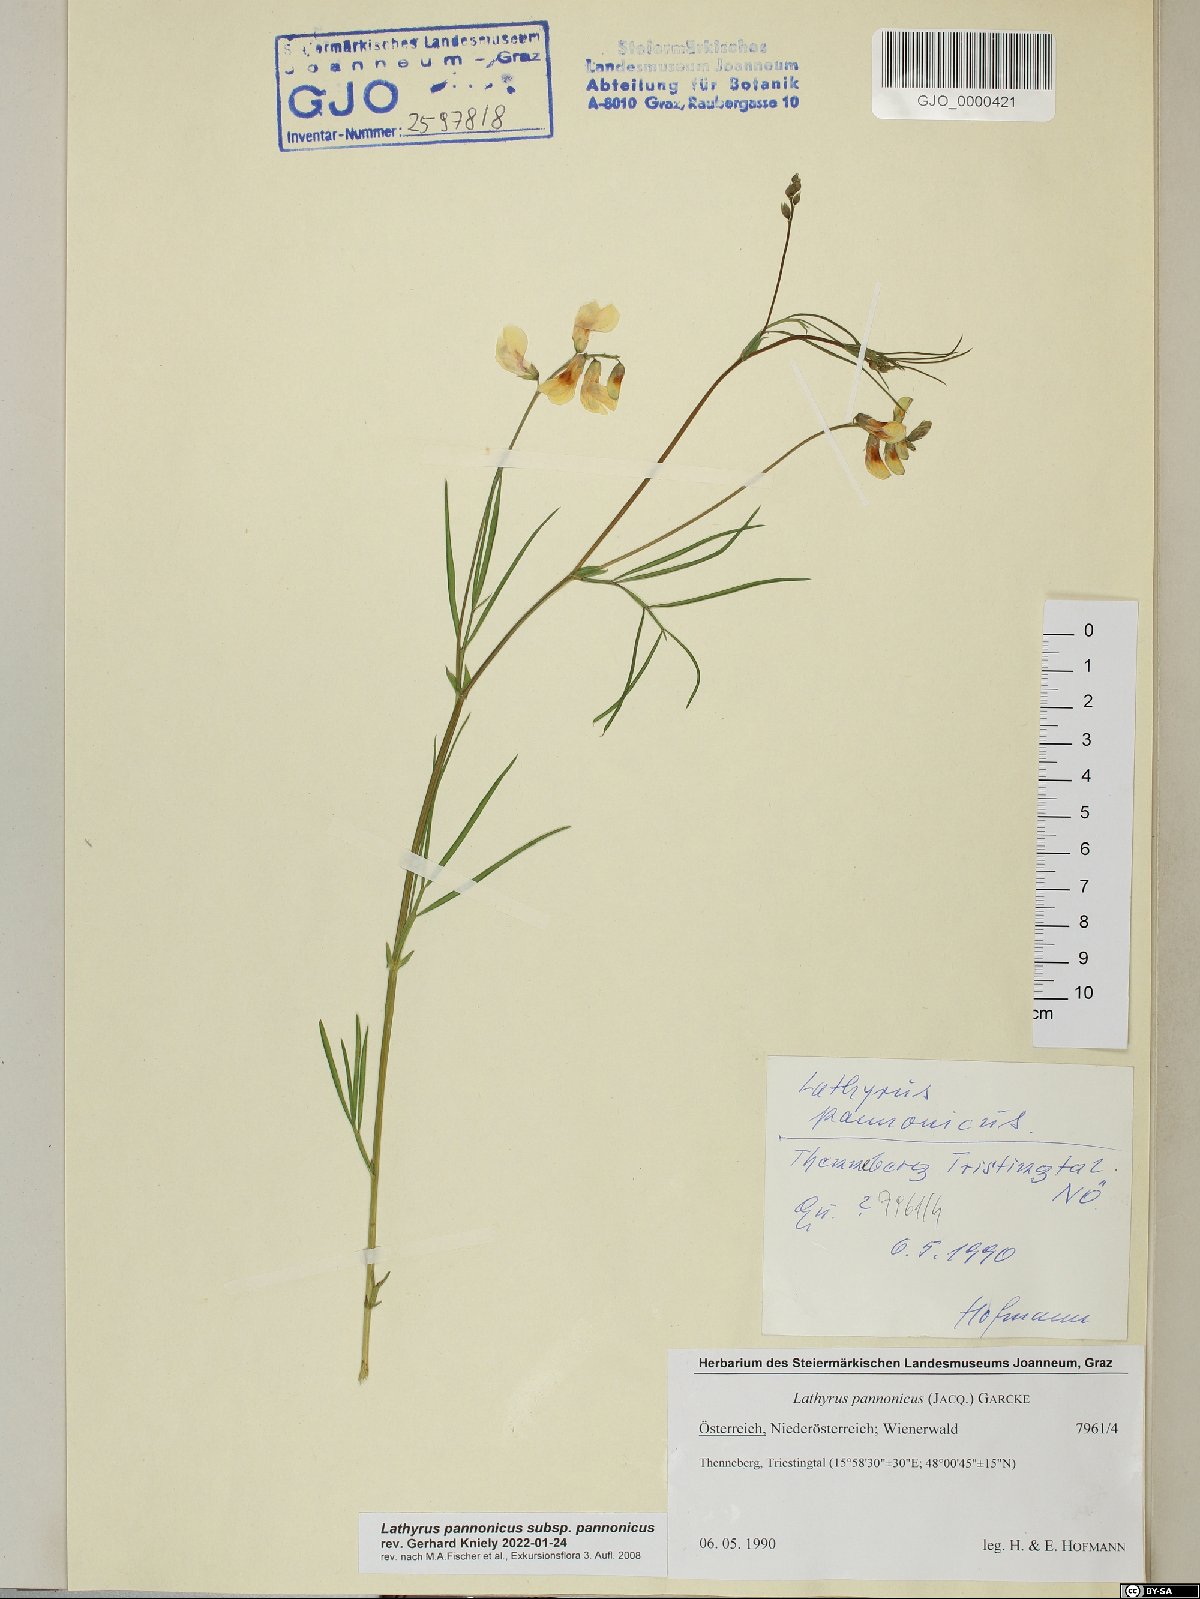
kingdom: Plantae
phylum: Tracheophyta
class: Magnoliopsida
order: Fabales
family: Fabaceae
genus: Lathyrus
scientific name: Lathyrus pannonicus
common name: Pea
